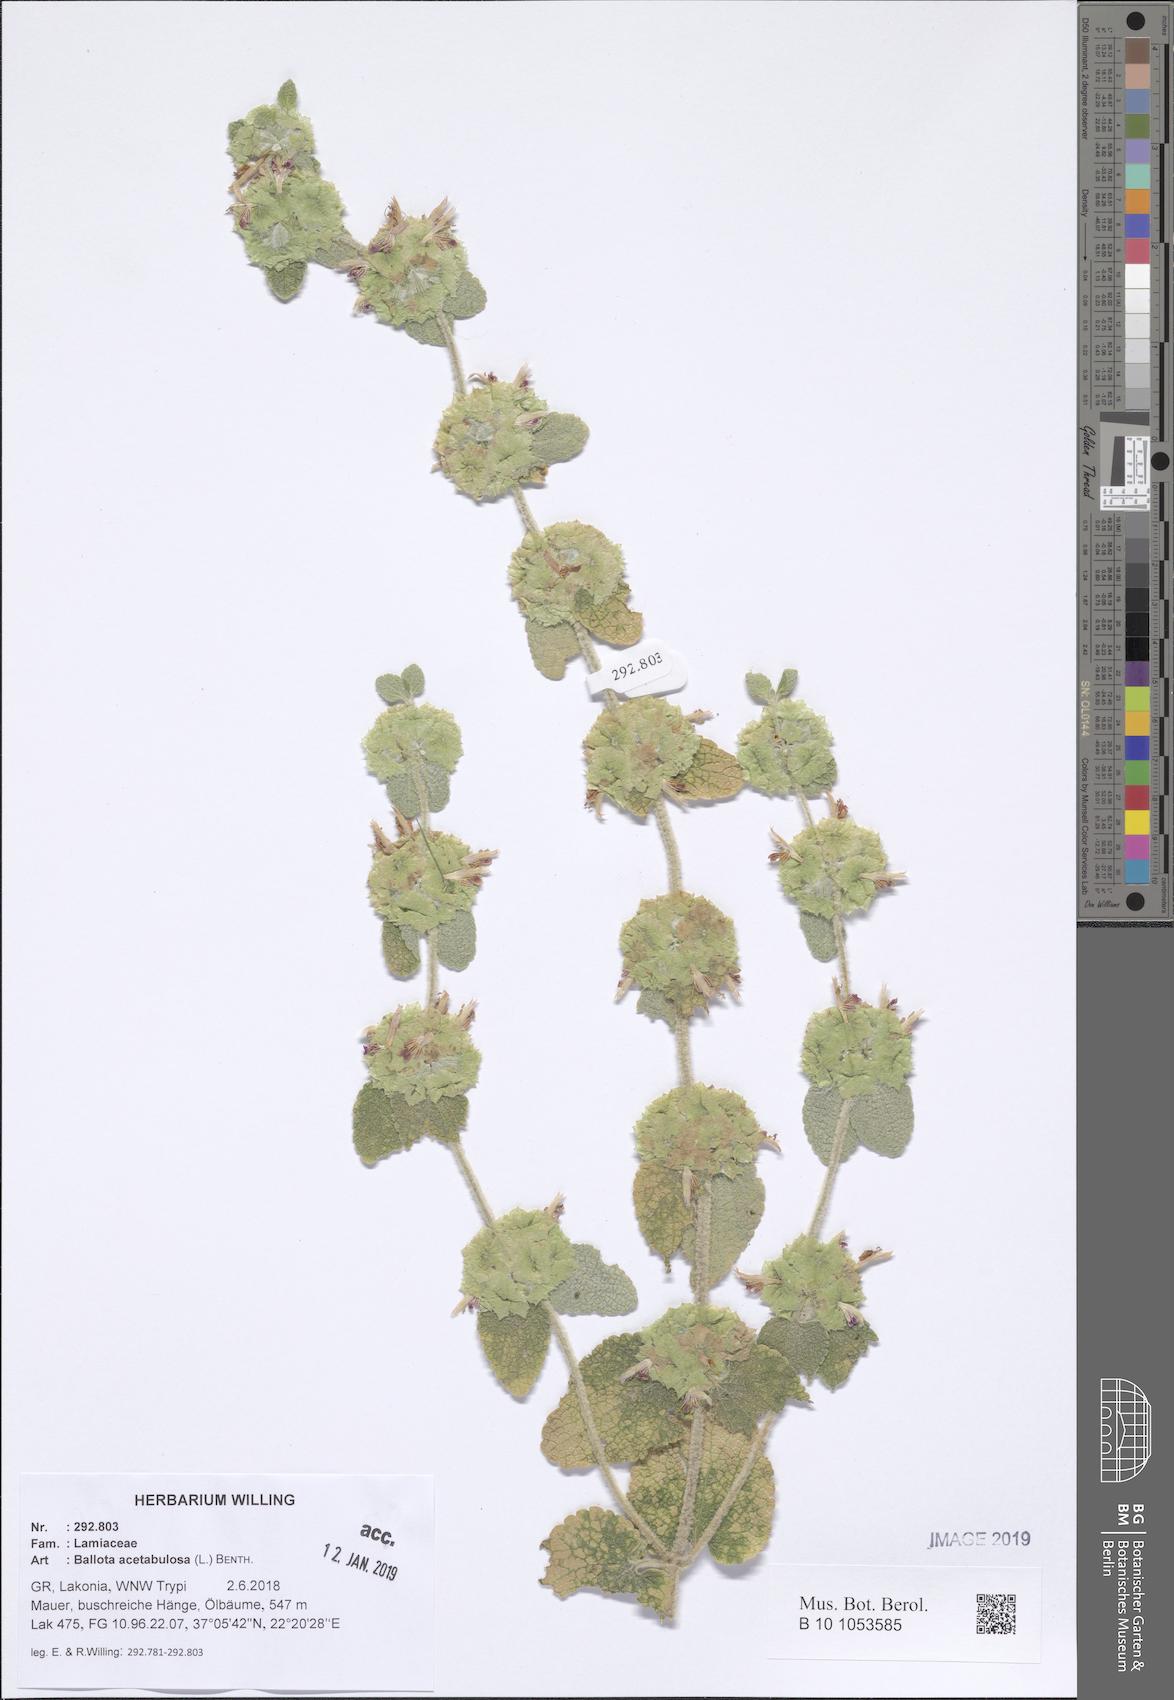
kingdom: Plantae
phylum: Tracheophyta
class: Magnoliopsida
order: Lamiales
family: Lamiaceae
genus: Pseudodictamnus
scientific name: Pseudodictamnus acetabulosus
